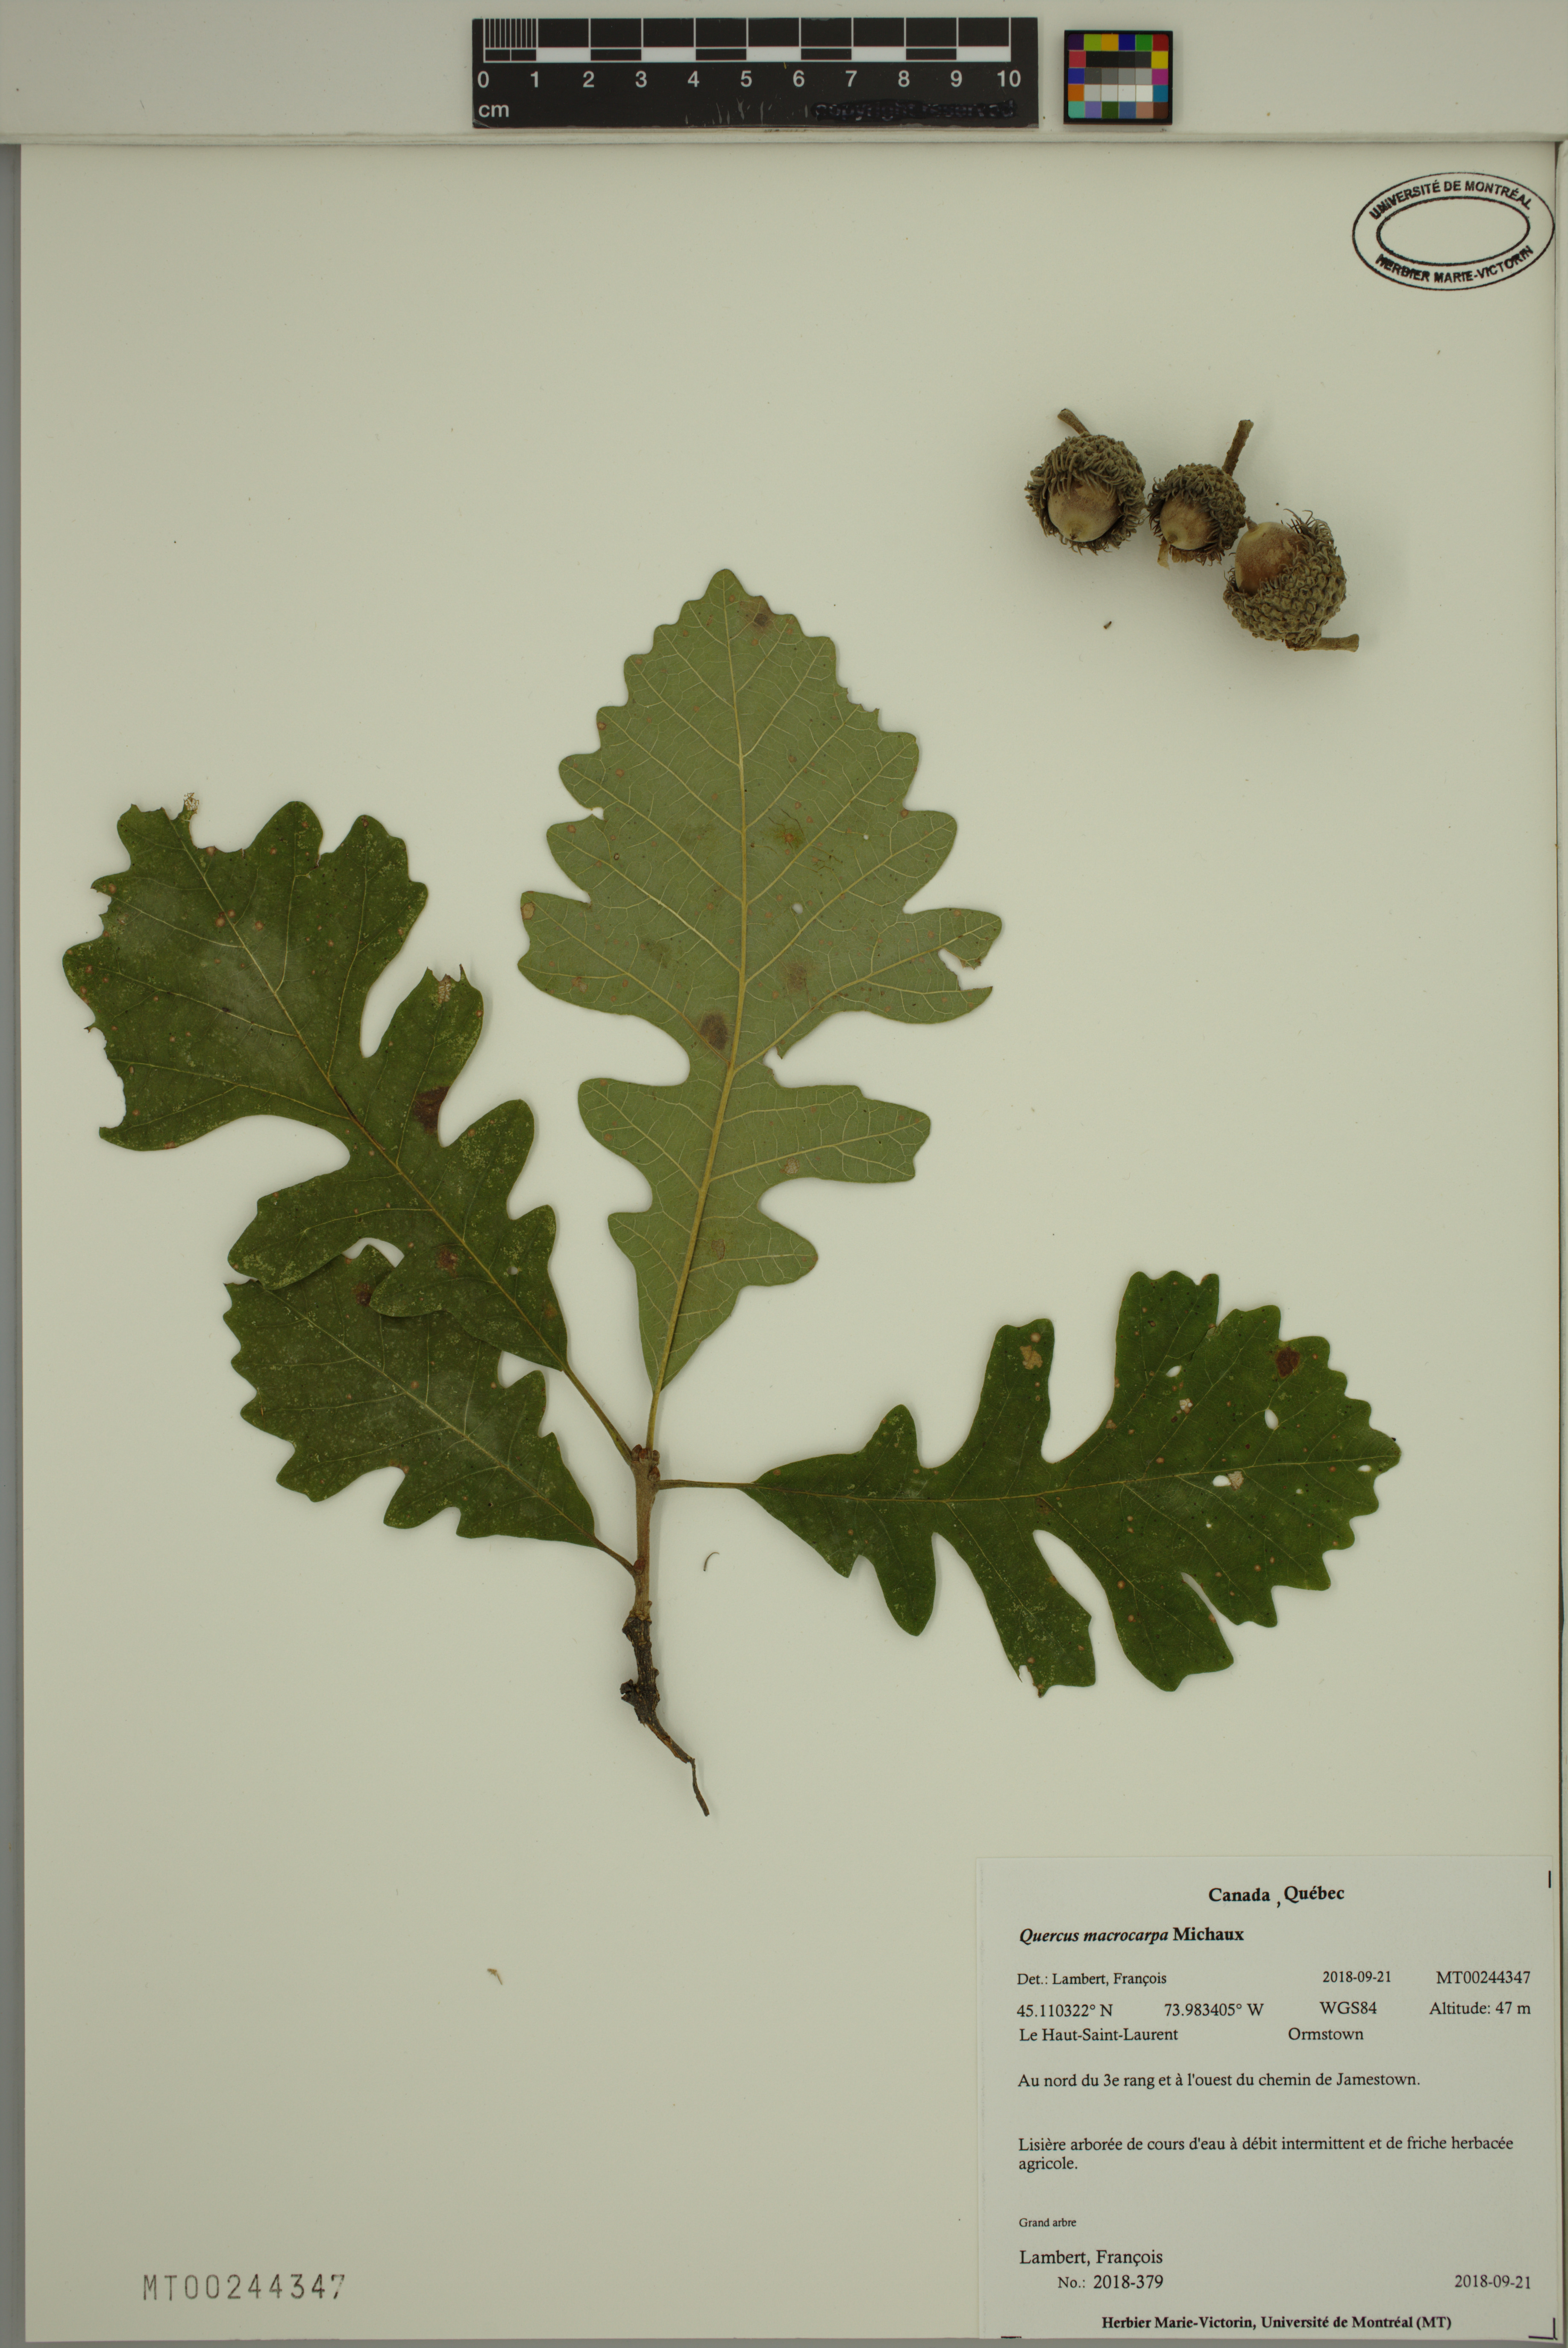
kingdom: Plantae
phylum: Tracheophyta
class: Magnoliopsida
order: Fagales
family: Fagaceae
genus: Quercus
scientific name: Quercus macrocarpa
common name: Bur oak
